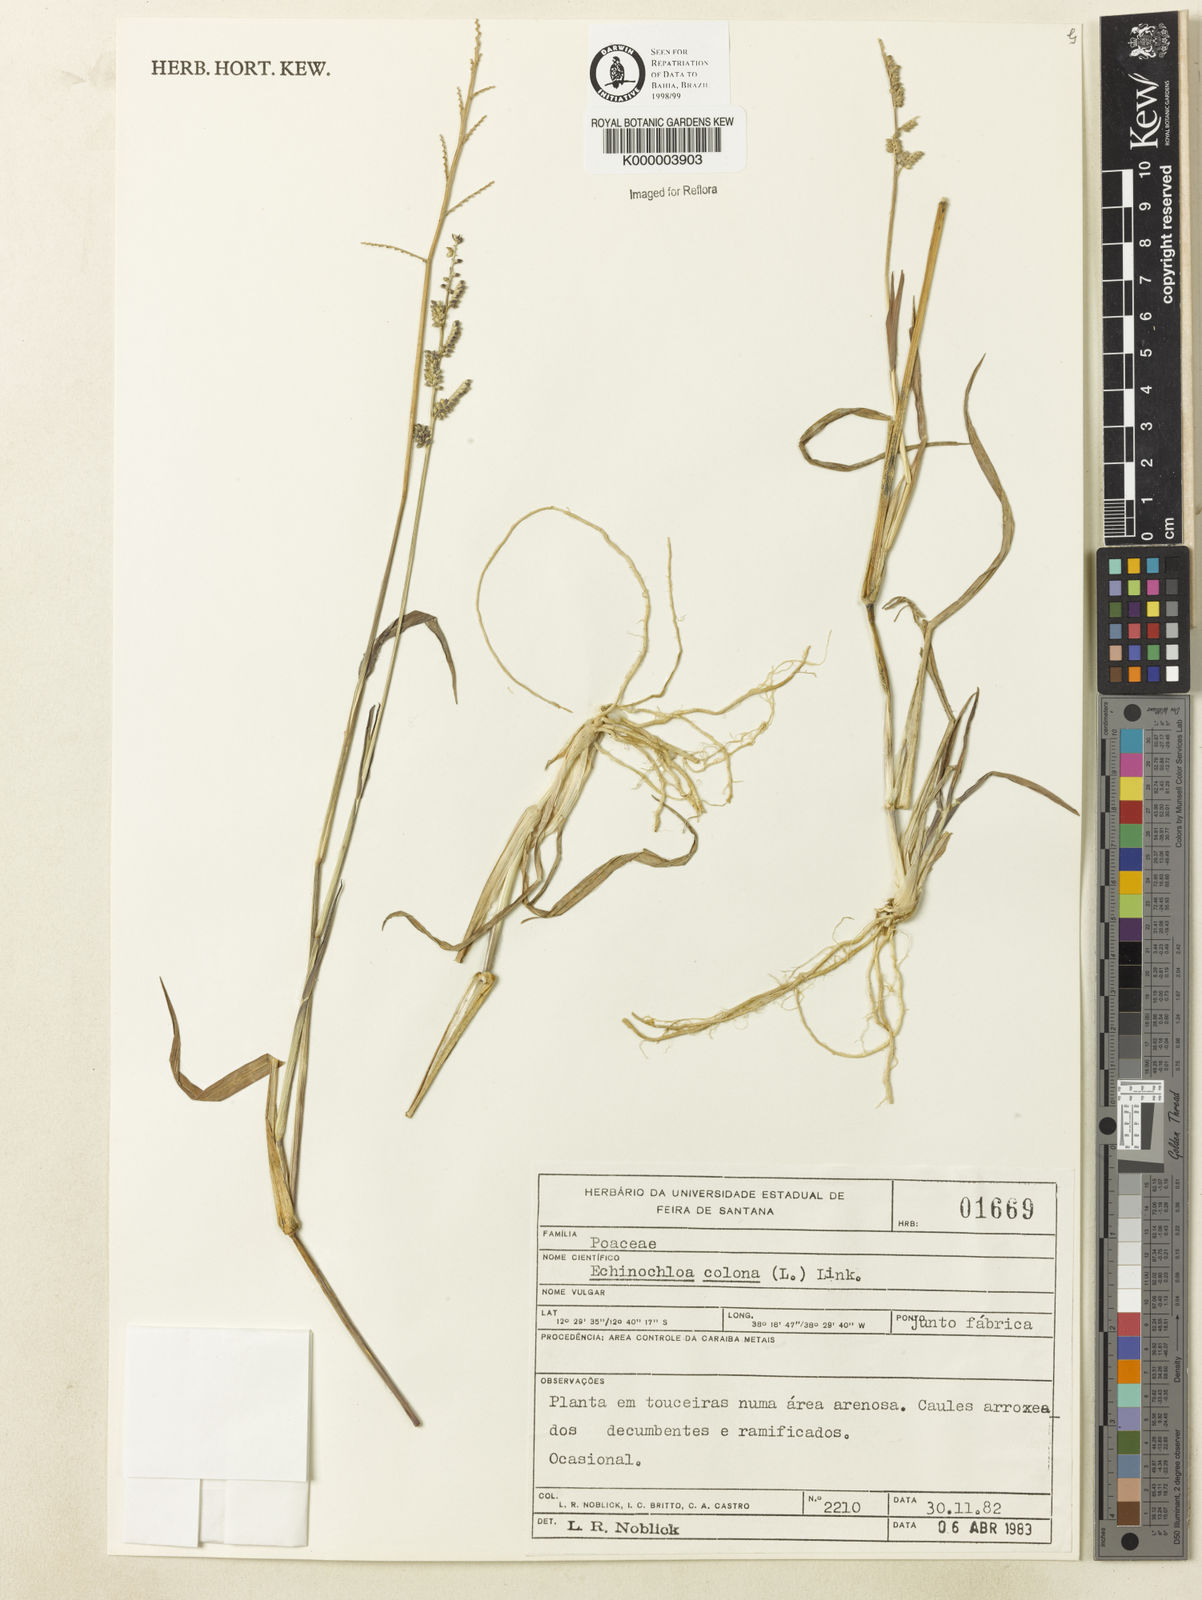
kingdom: Plantae
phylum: Tracheophyta
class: Liliopsida
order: Poales
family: Poaceae
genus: Echinochloa
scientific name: Echinochloa colonum
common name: Jungle rice
